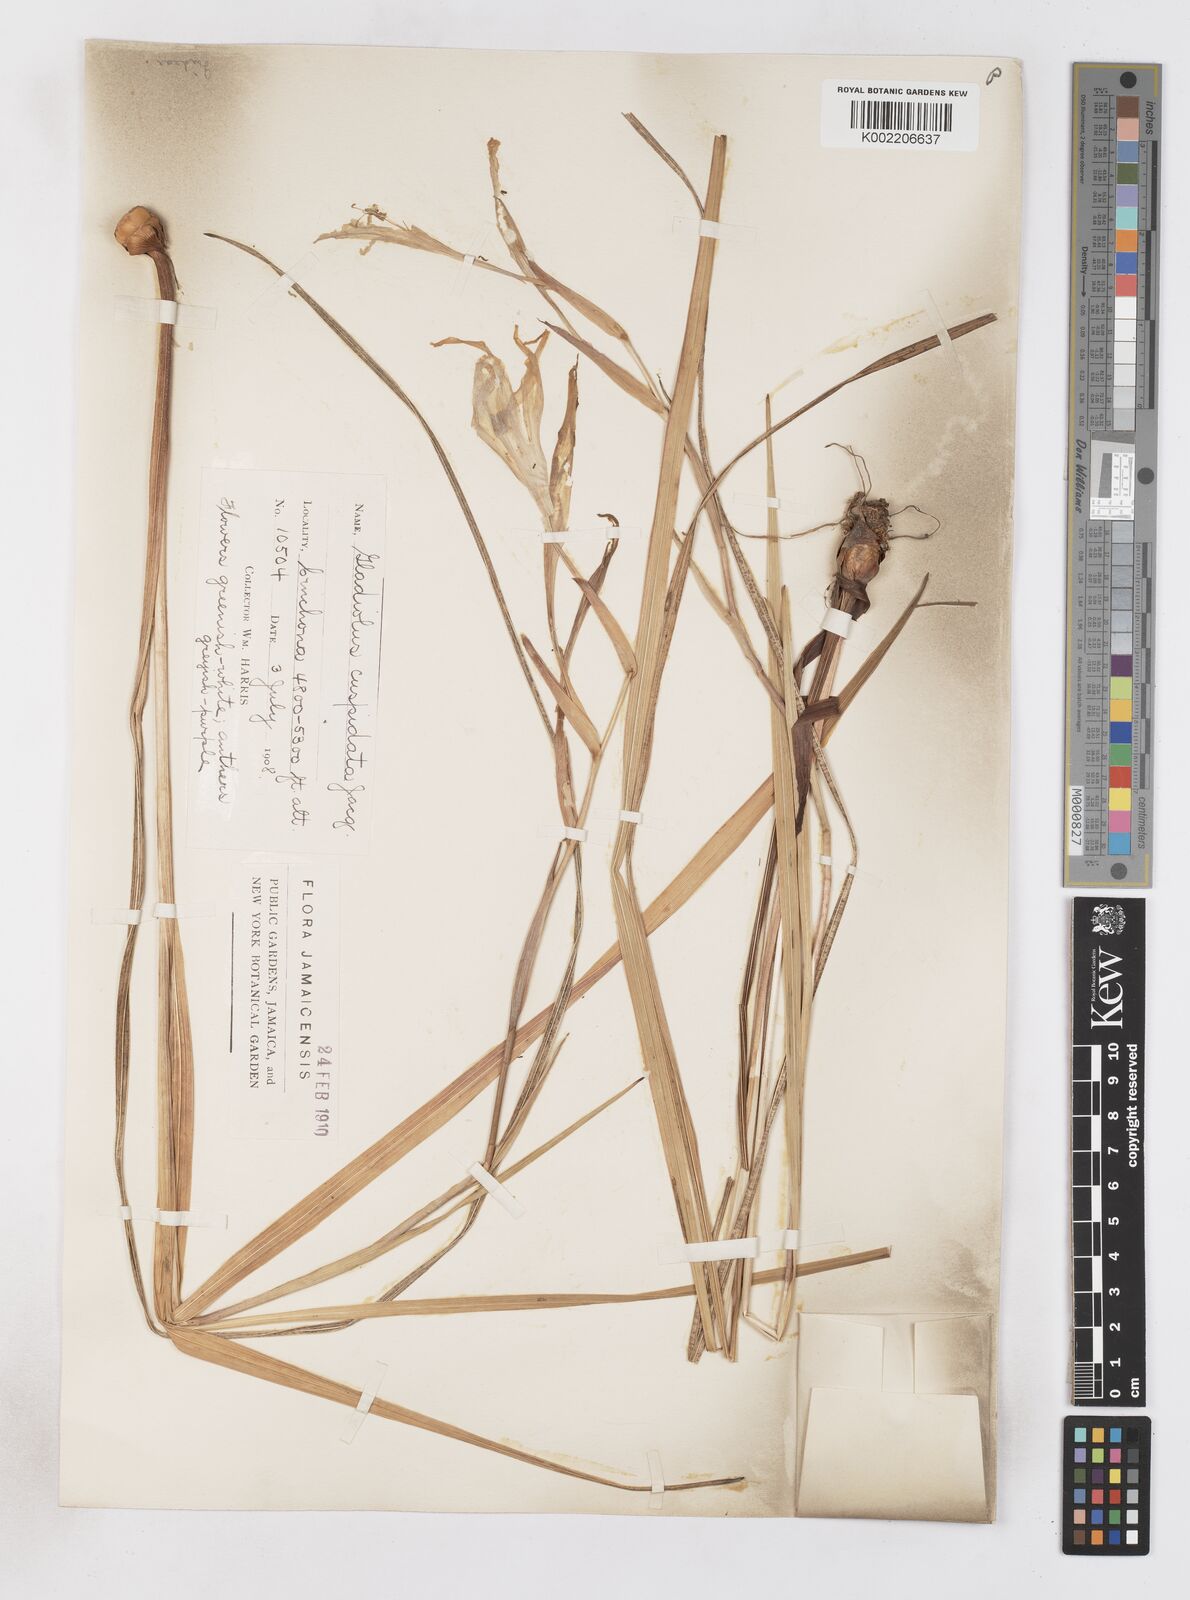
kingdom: Plantae
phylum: Tracheophyta
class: Liliopsida
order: Asparagales
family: Iridaceae
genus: Gladiolus
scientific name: Gladiolus undulatus
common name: Large painted-lady
